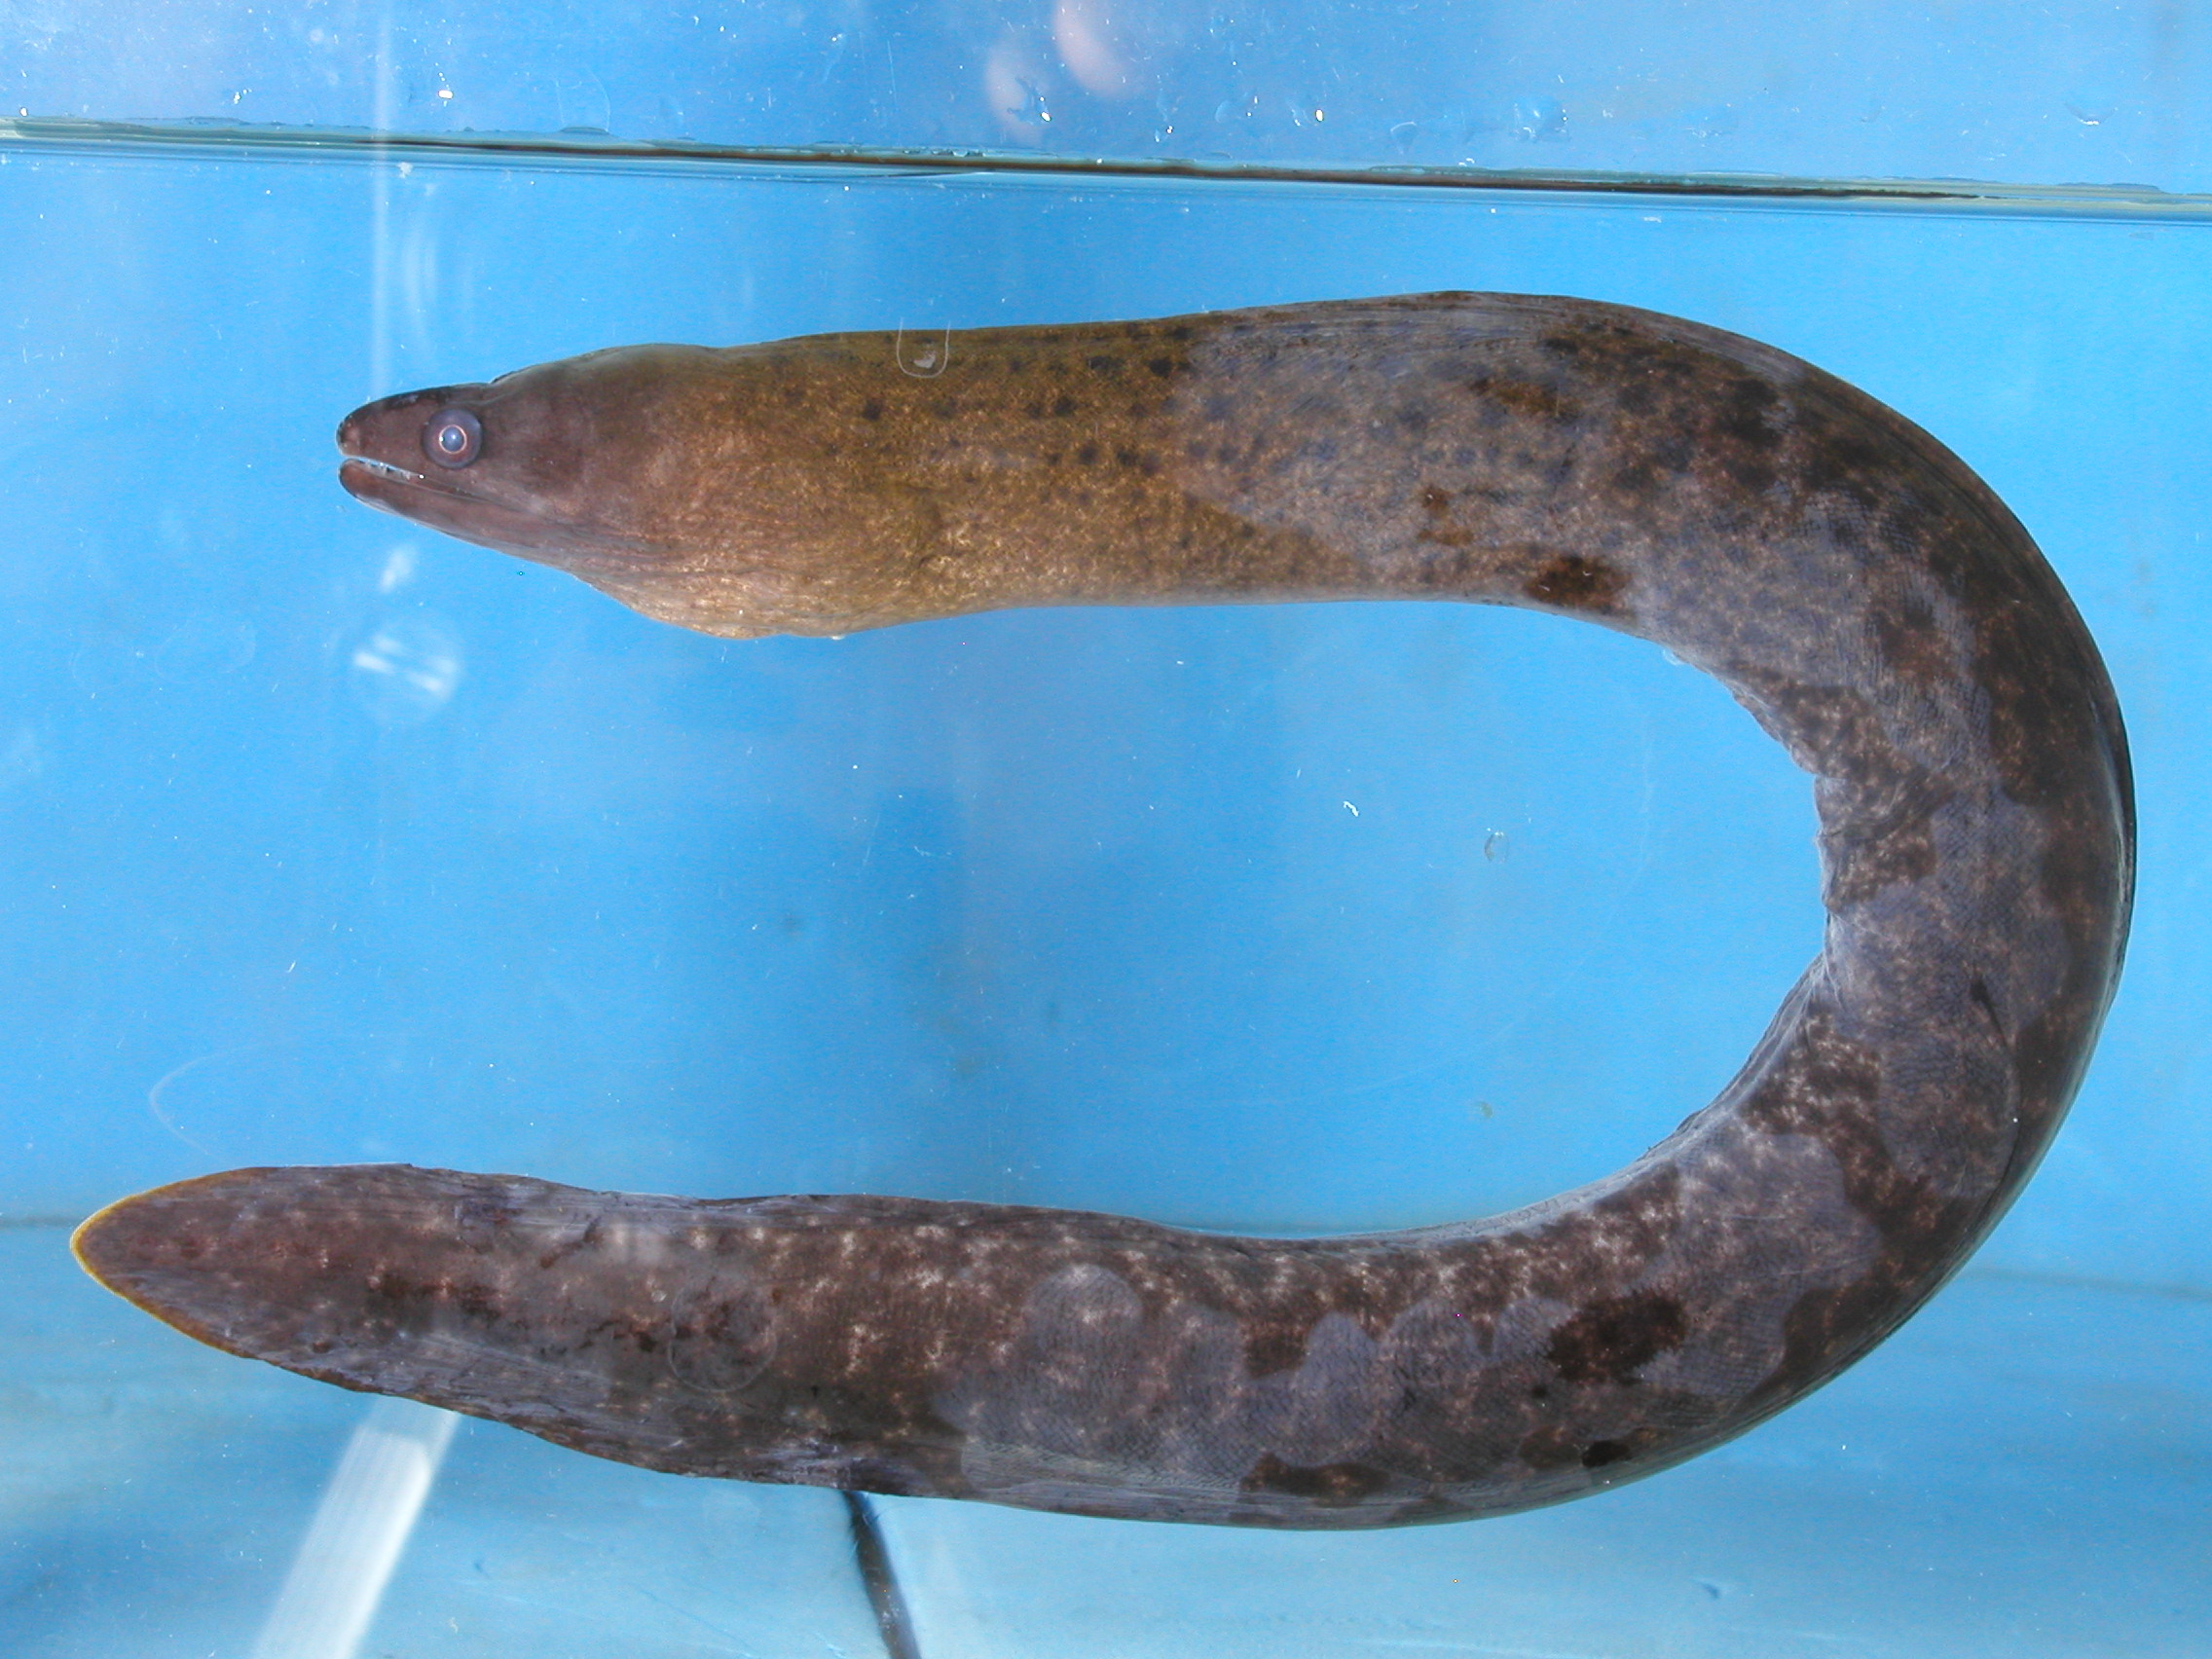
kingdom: Animalia
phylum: Chordata
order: Anguilliformes
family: Muraenidae
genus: Gymnothorax
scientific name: Gymnothorax buroensis
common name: Latticetail moray
